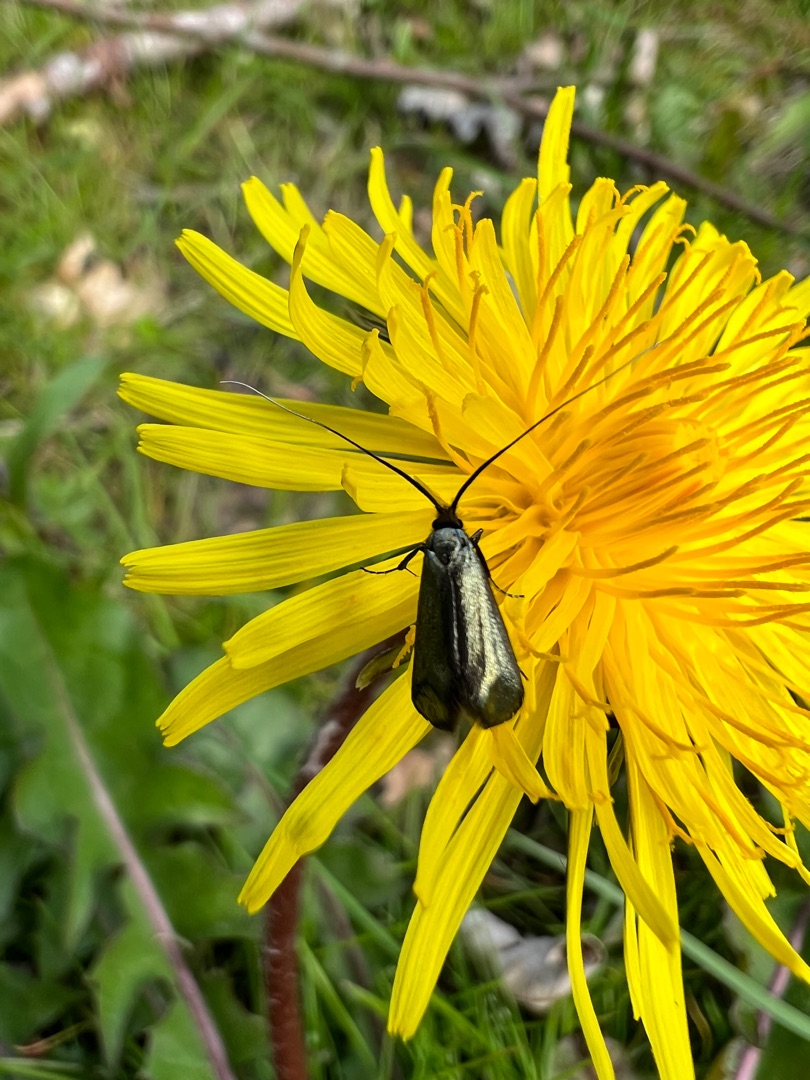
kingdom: Animalia
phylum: Arthropoda
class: Insecta
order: Lepidoptera
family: Adelidae
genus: Adela
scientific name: Adela viridella
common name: Egelanghornsmøl
